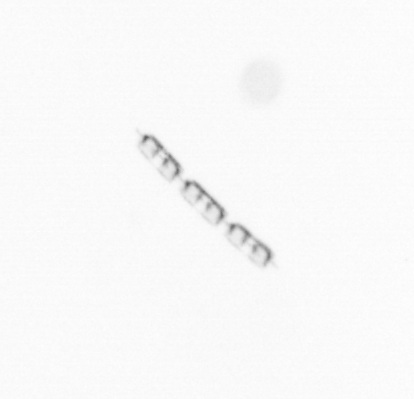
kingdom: Chromista
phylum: Ochrophyta
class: Bacillariophyceae
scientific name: Bacillariophyceae
